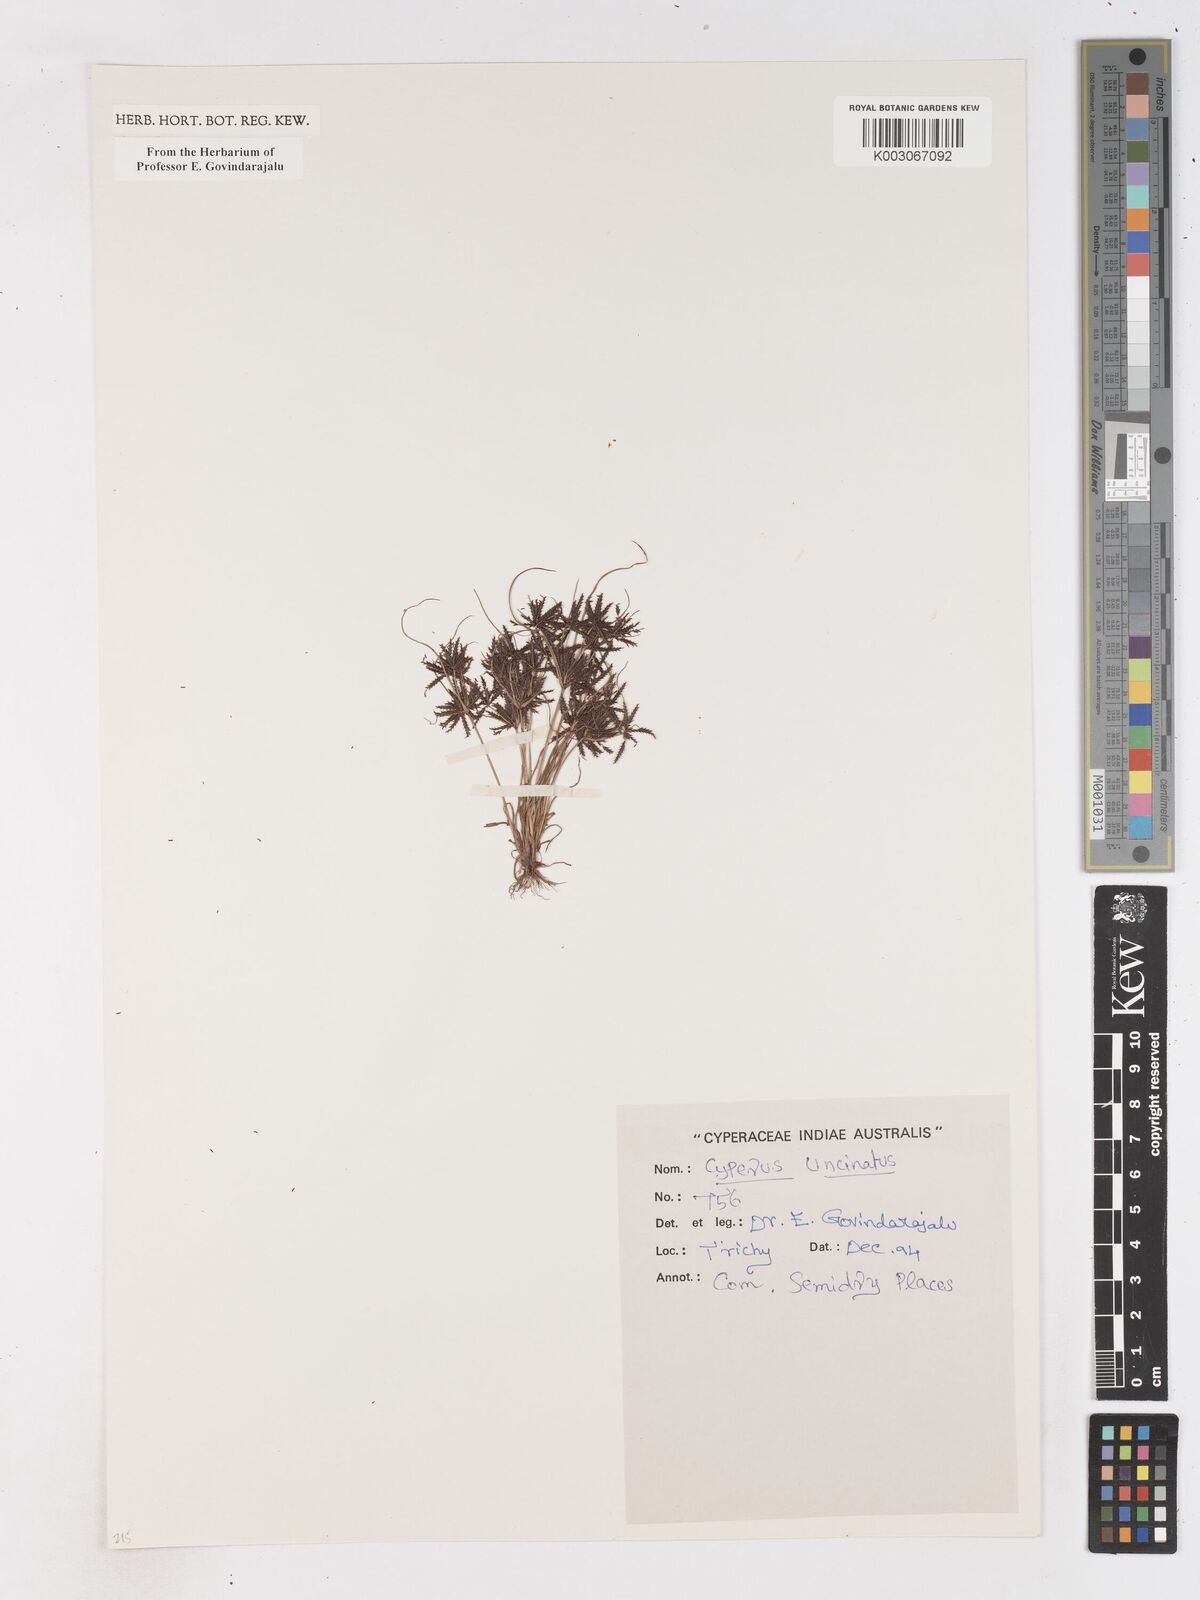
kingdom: Plantae
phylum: Tracheophyta
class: Liliopsida
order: Poales
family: Cyperaceae
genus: Cyperus
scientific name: Cyperus cuspidatus
